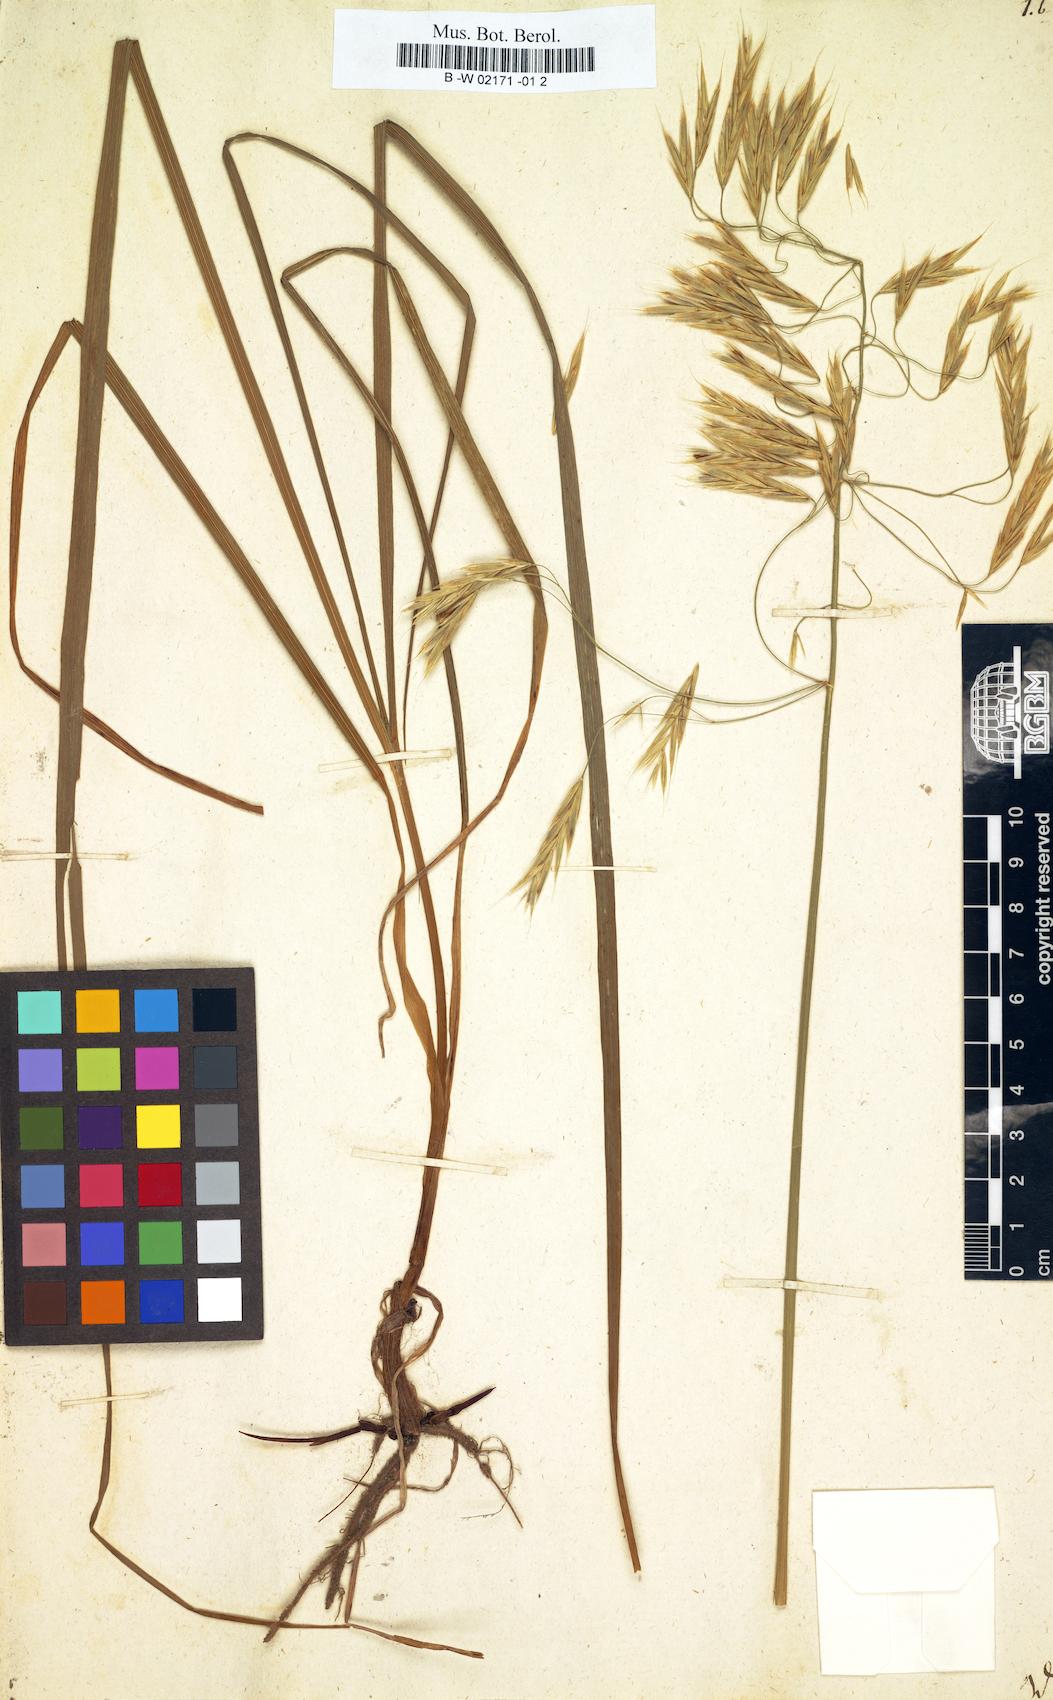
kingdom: Plantae
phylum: Tracheophyta
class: Liliopsida
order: Poales
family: Poaceae
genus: Bromus
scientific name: Bromus inermis
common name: Smooth brome
